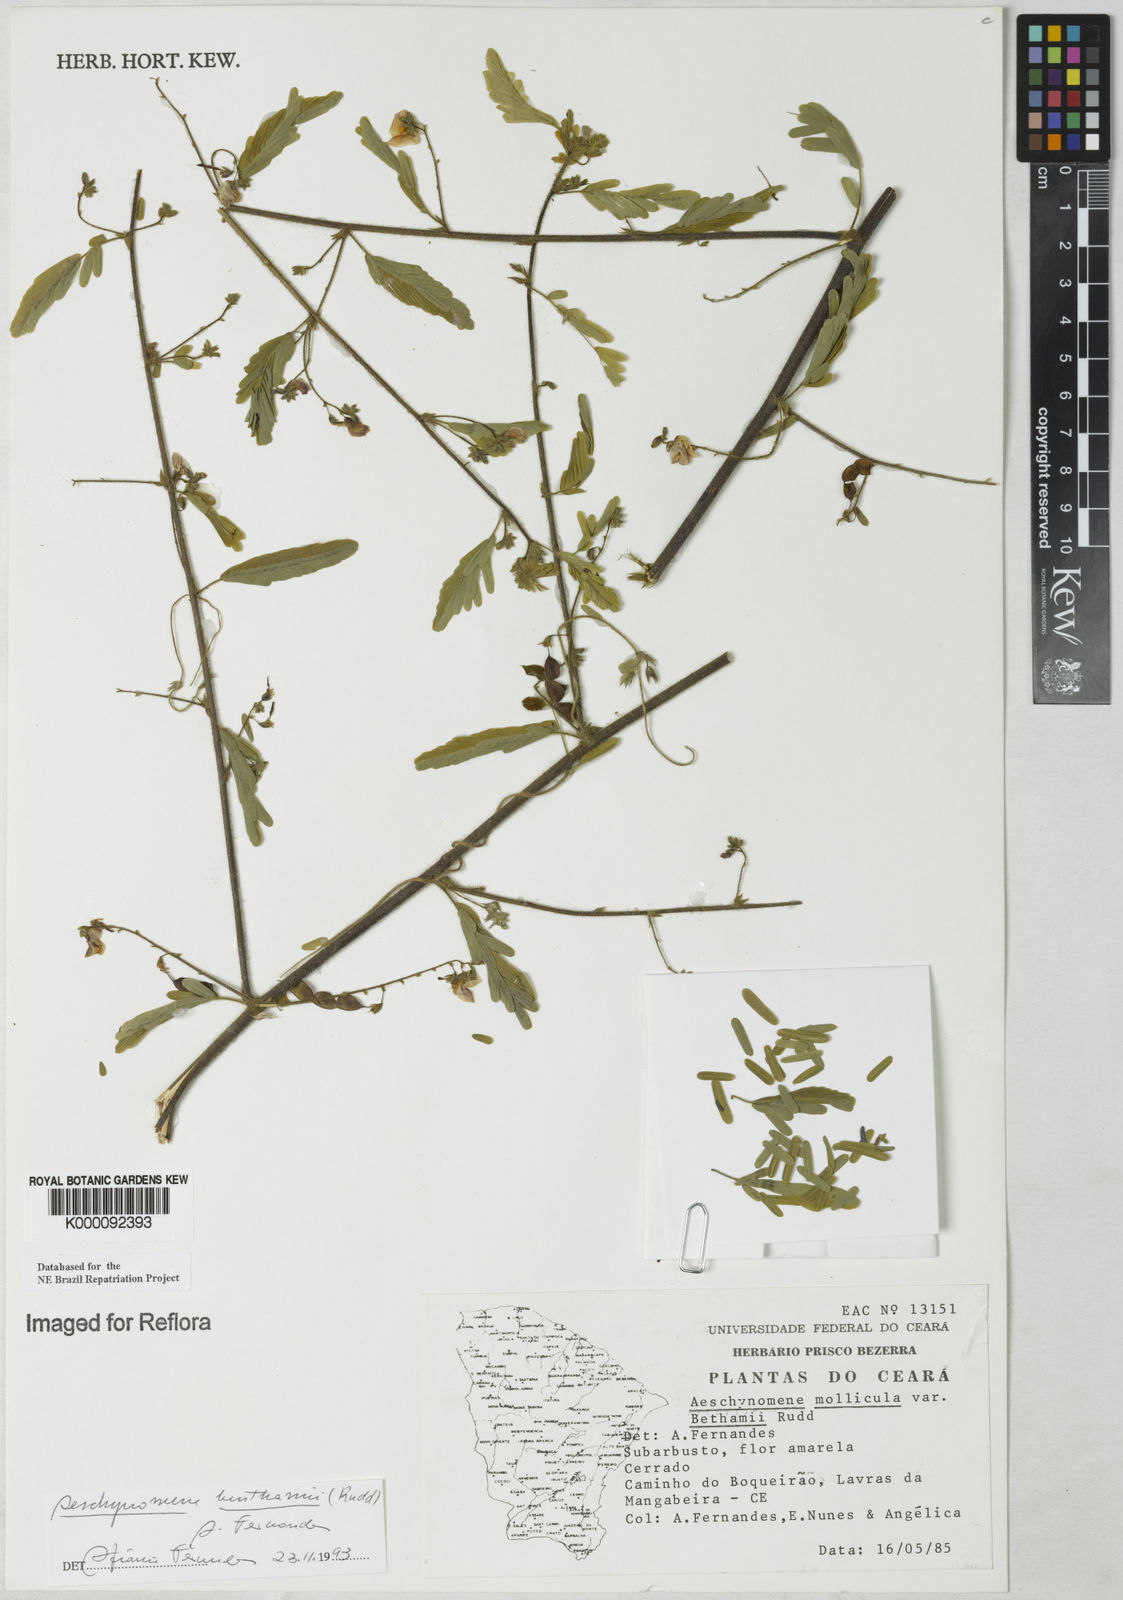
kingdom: Plantae
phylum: Tracheophyta
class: Magnoliopsida
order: Fabales
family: Fabaceae
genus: Aeschynomene
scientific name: Aeschynomene
